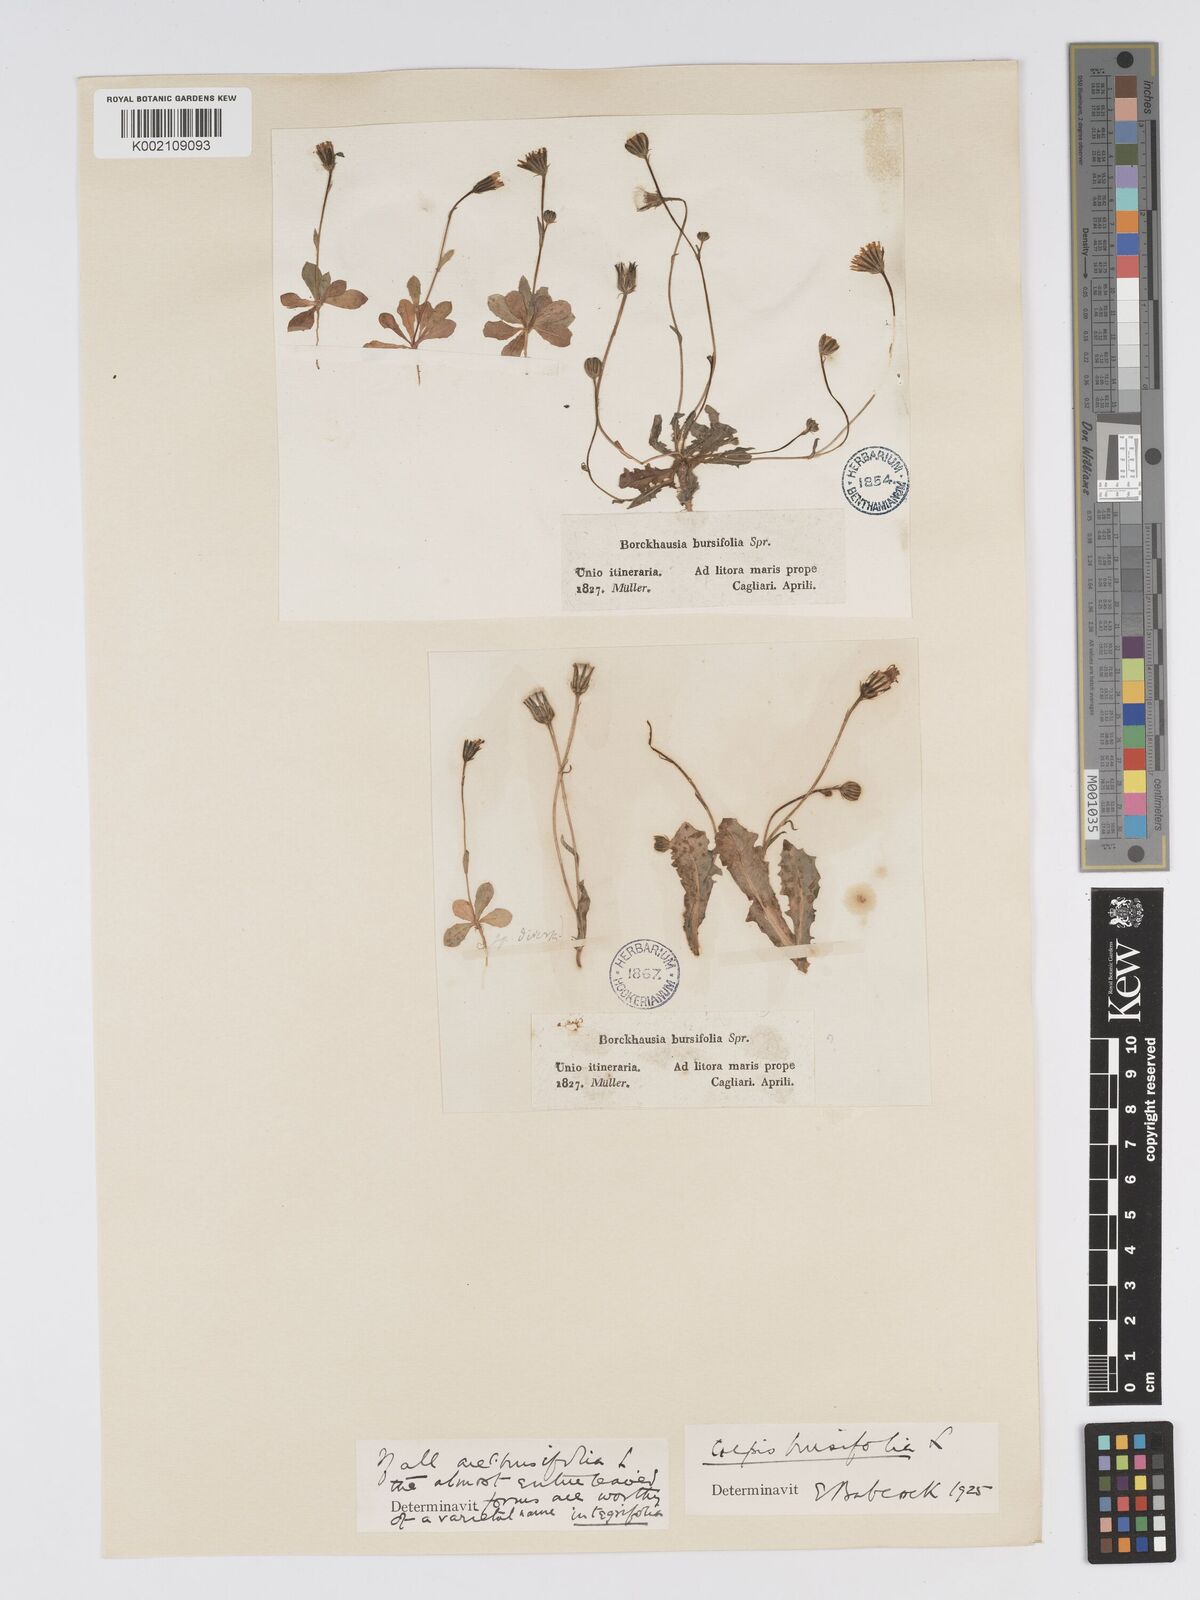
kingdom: Plantae
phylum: Tracheophyta
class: Magnoliopsida
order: Asterales
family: Asteraceae
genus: Crepis
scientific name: Crepis bursifolia
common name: Italian hawksbeard
